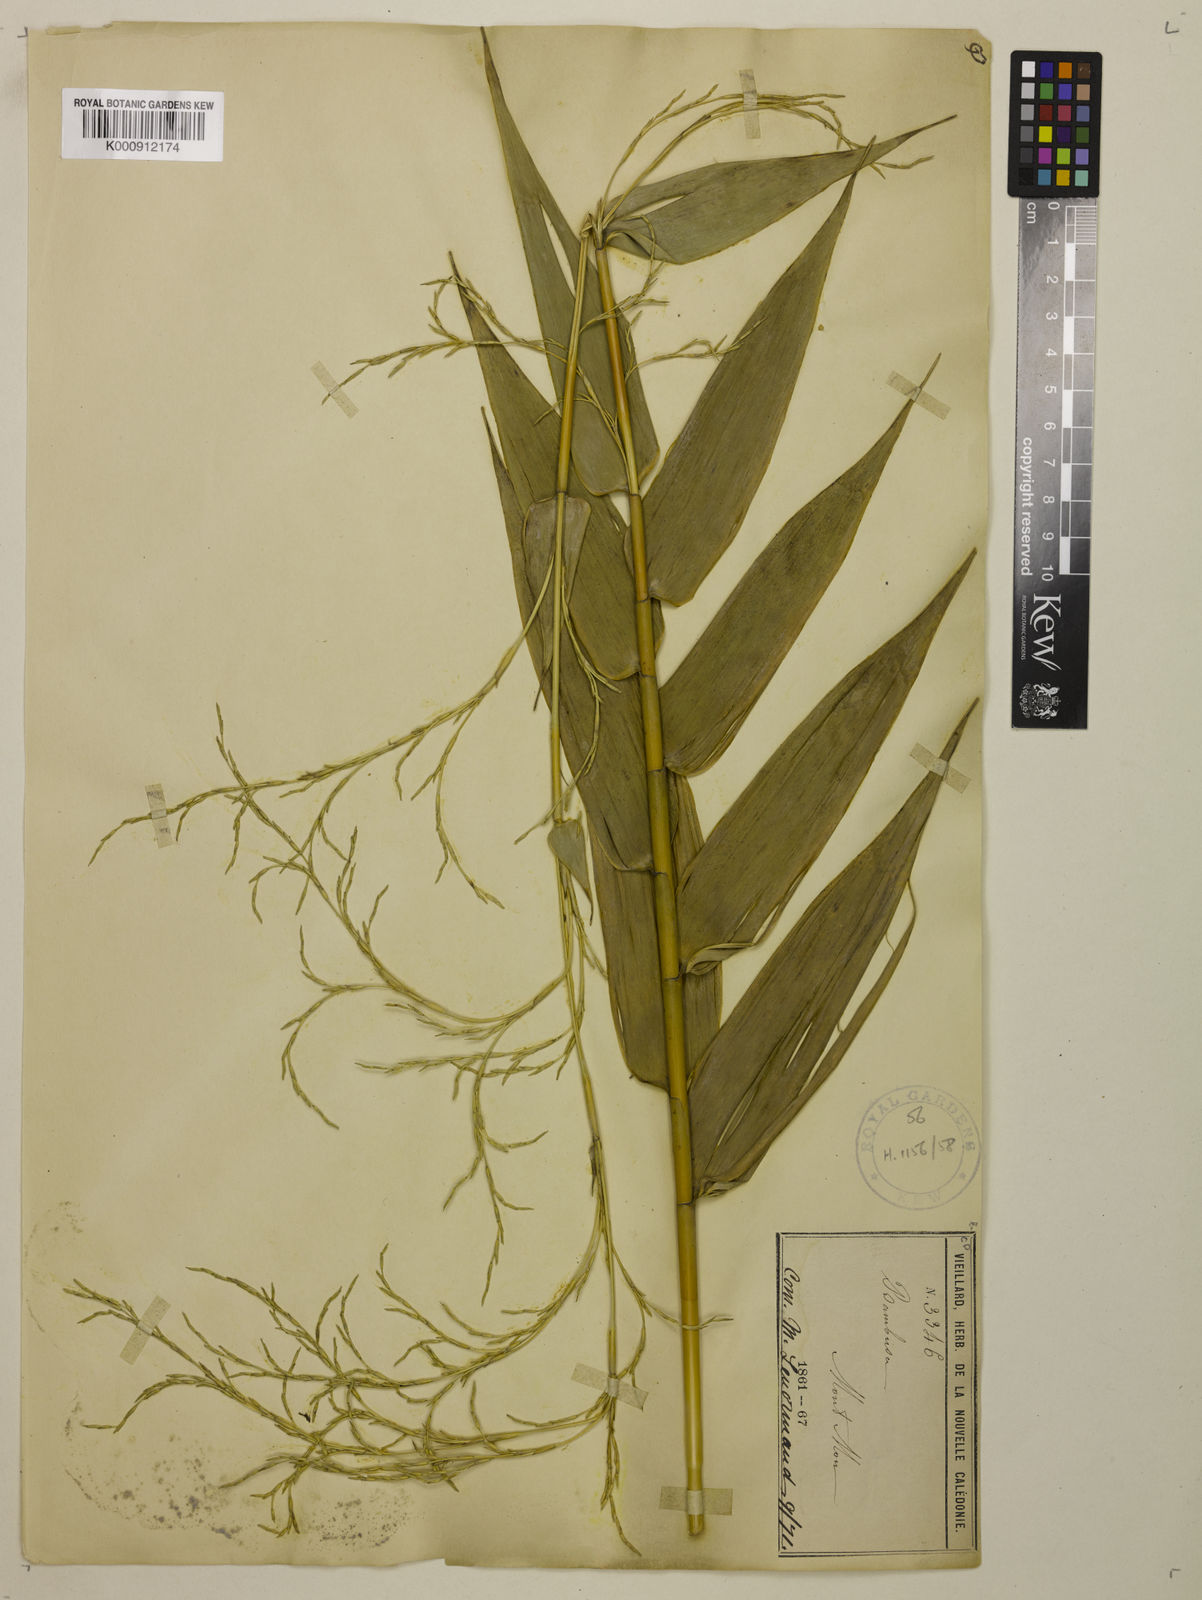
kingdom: Plantae
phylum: Tracheophyta
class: Liliopsida
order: Poales
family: Poaceae
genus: Greslania
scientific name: Greslania circinata
